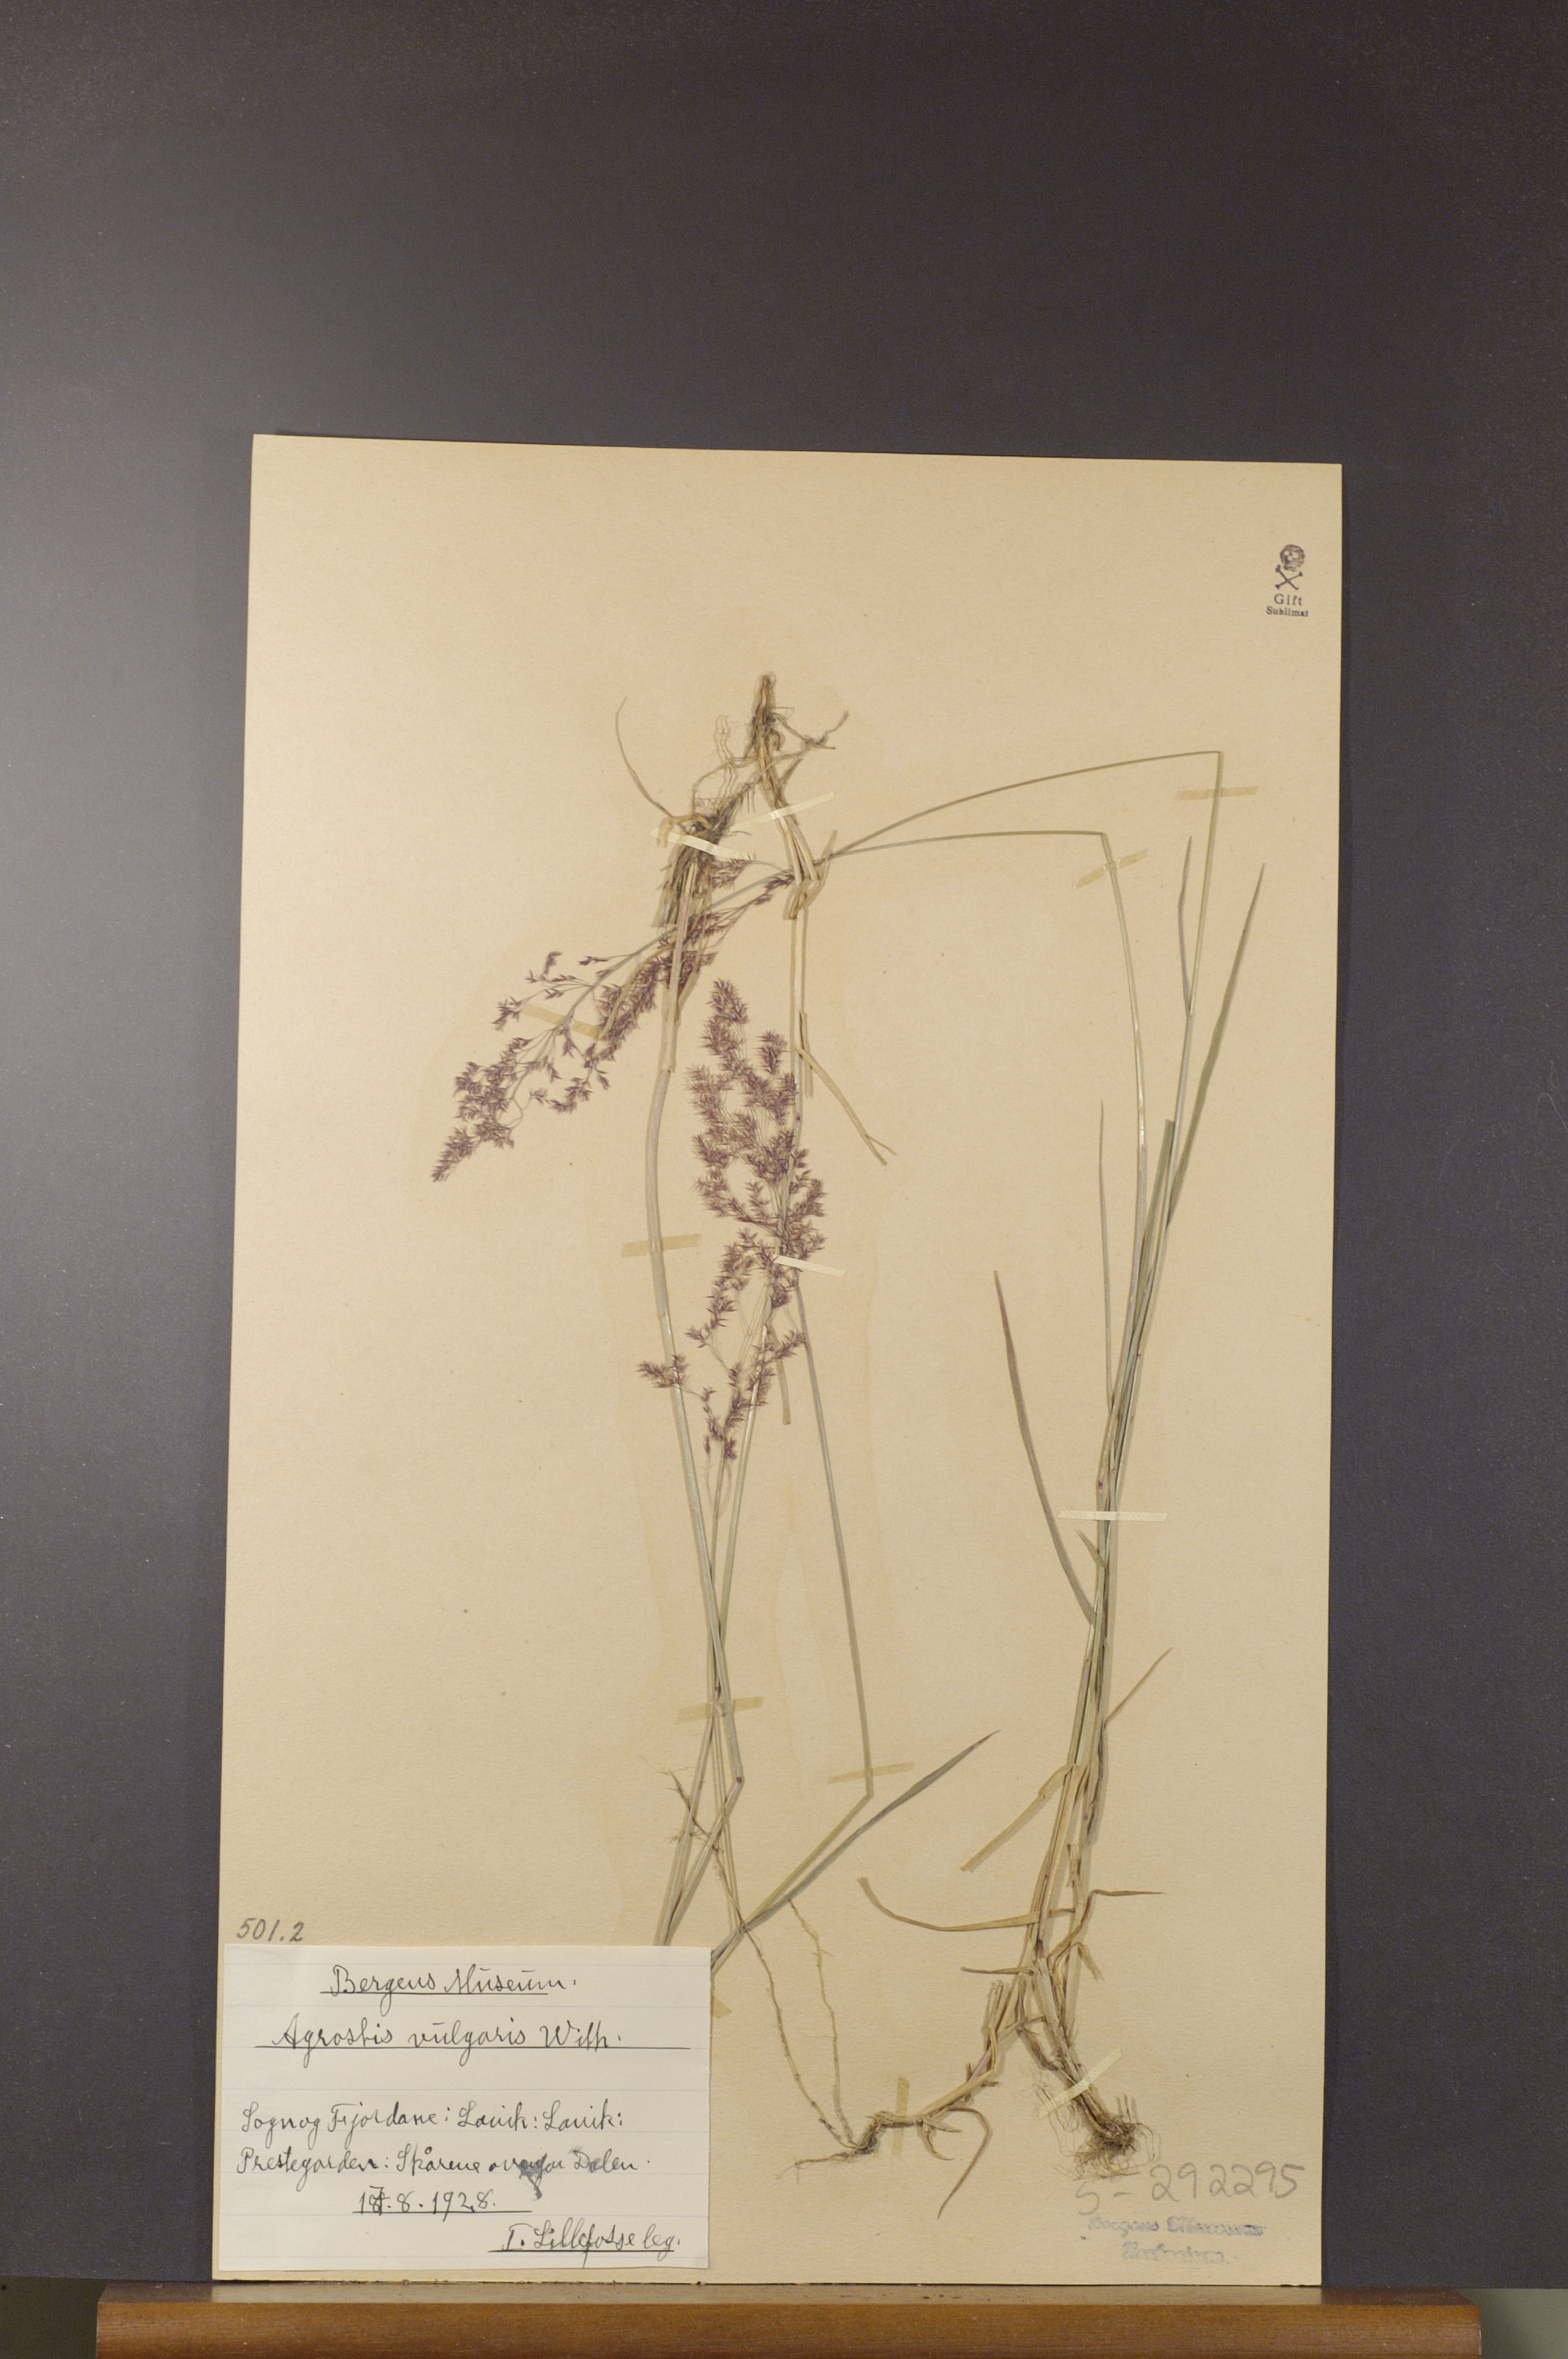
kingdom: Plantae
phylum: Tracheophyta
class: Liliopsida
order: Poales
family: Poaceae
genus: Agrostis
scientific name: Agrostis capillaris
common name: Colonial bentgrass
